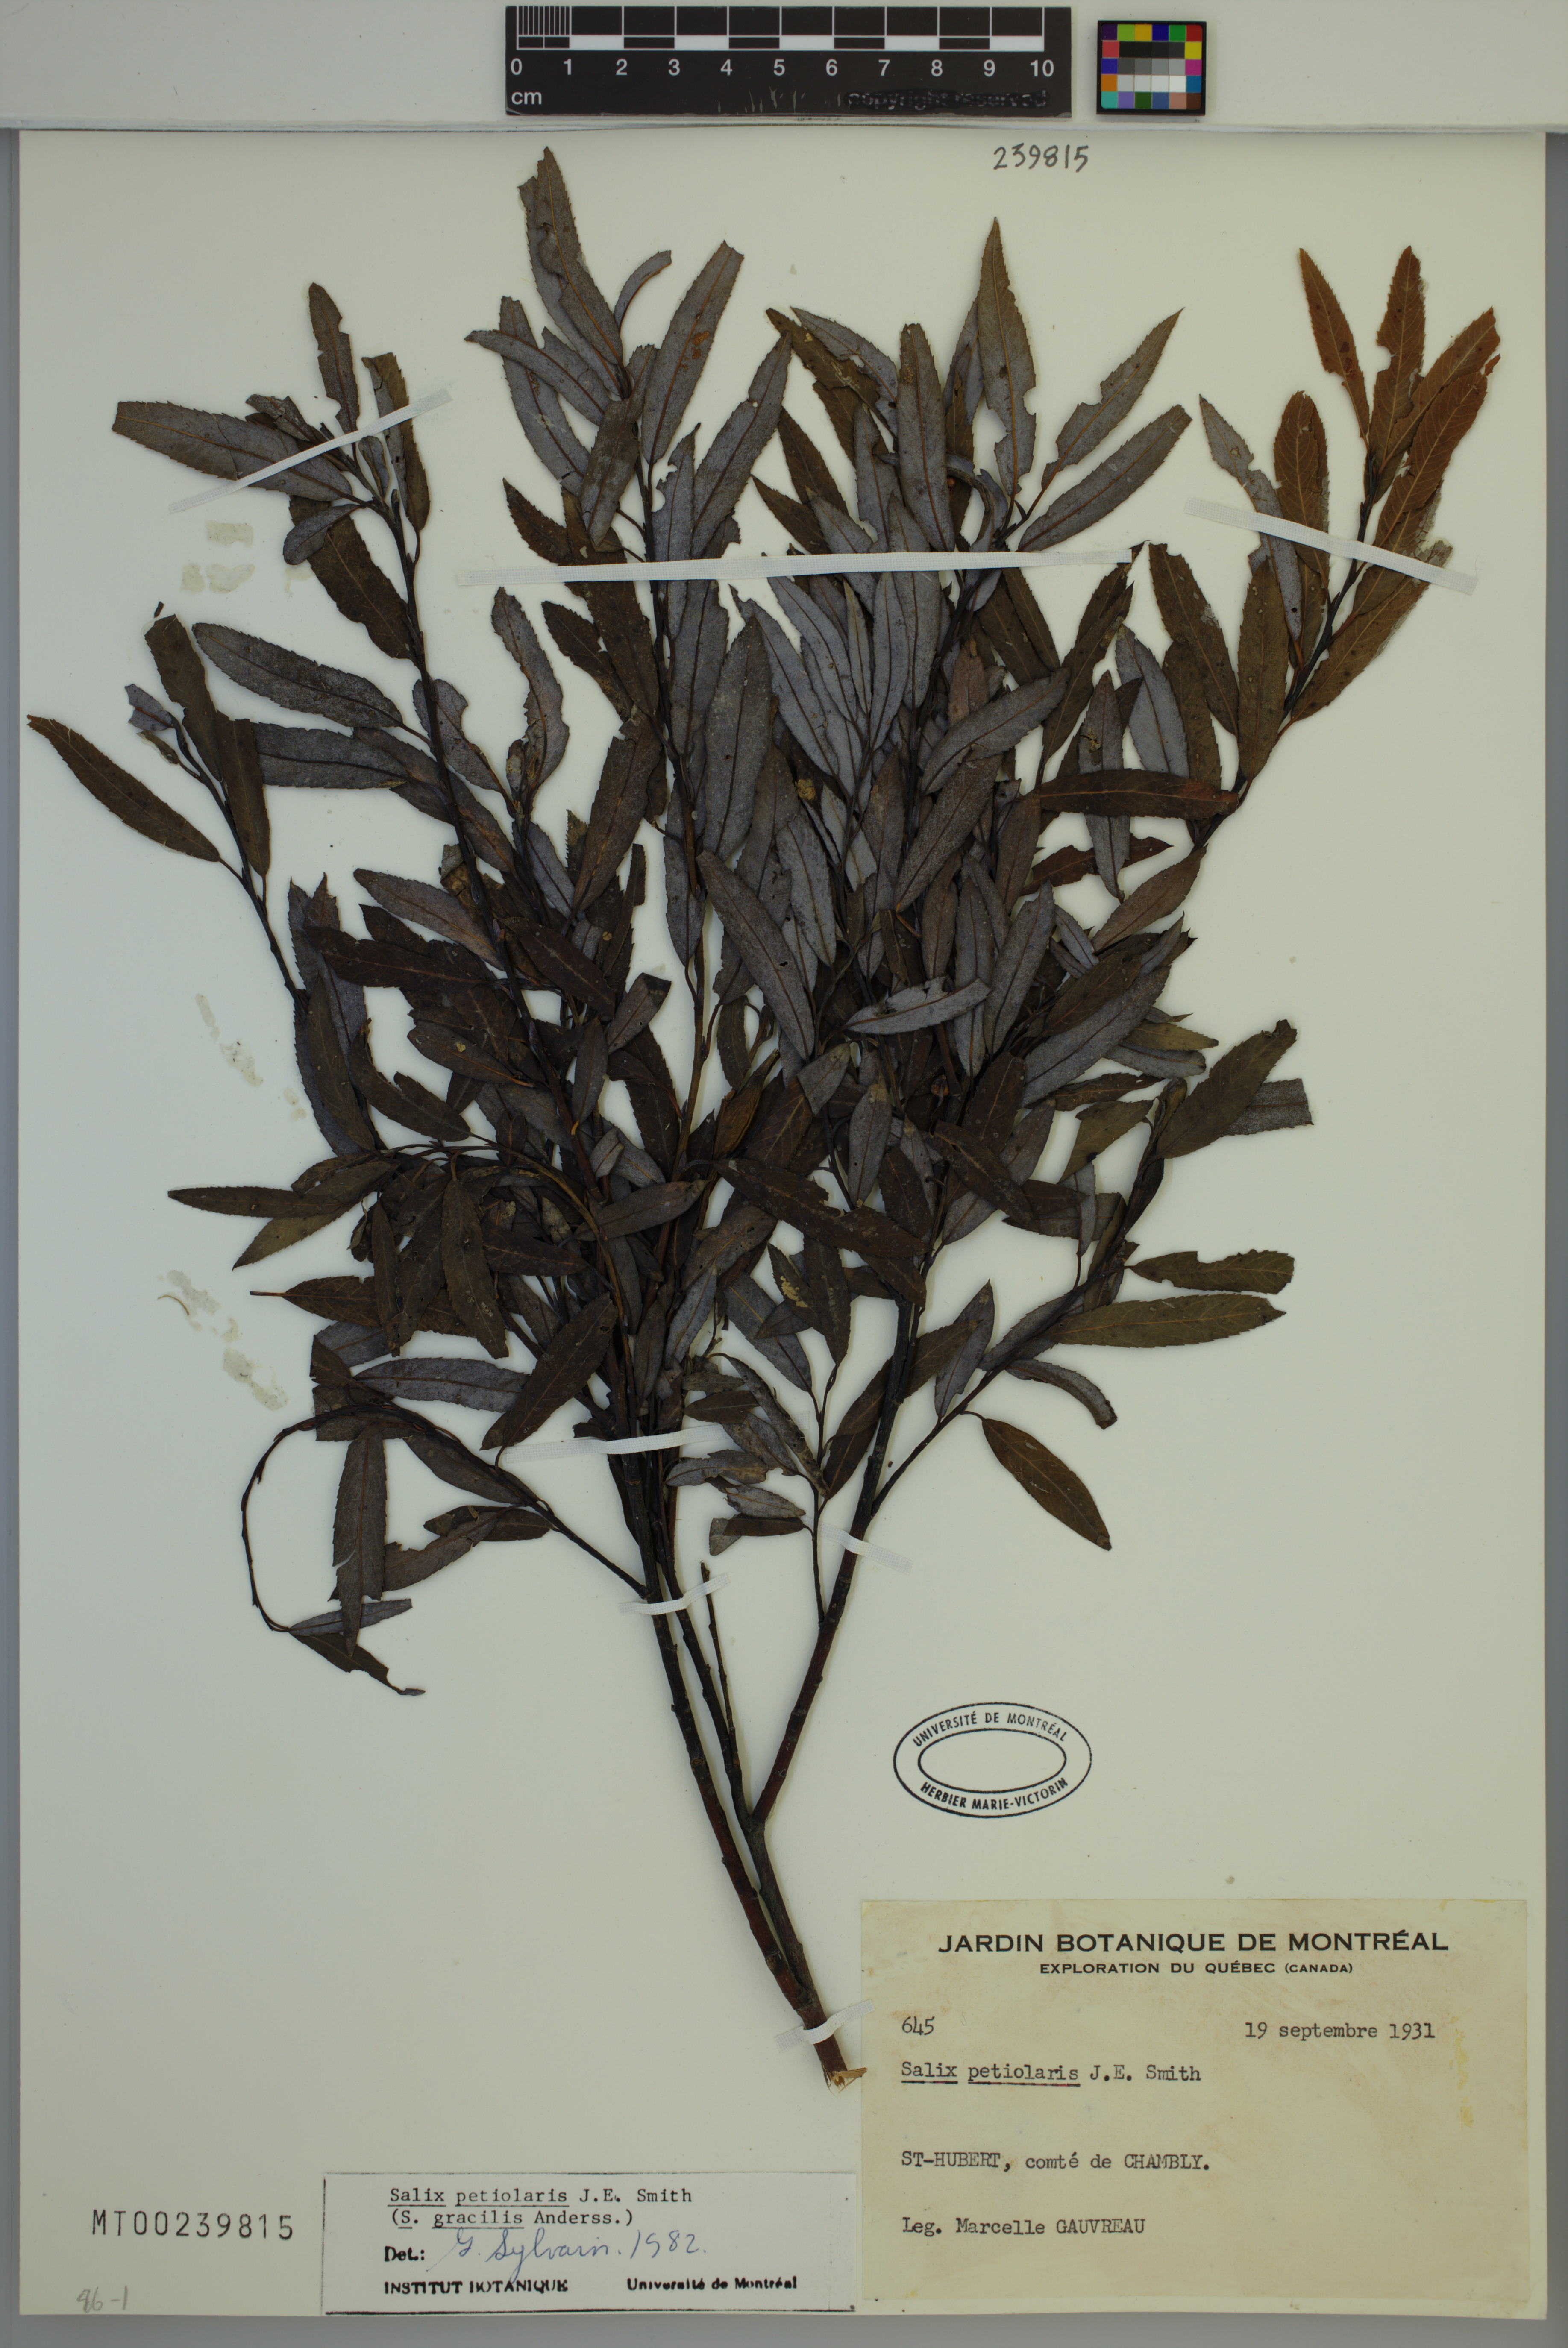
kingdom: Plantae
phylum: Tracheophyta
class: Magnoliopsida
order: Malpighiales
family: Salicaceae
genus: Salix
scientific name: Salix petiolaris
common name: Slender willow
